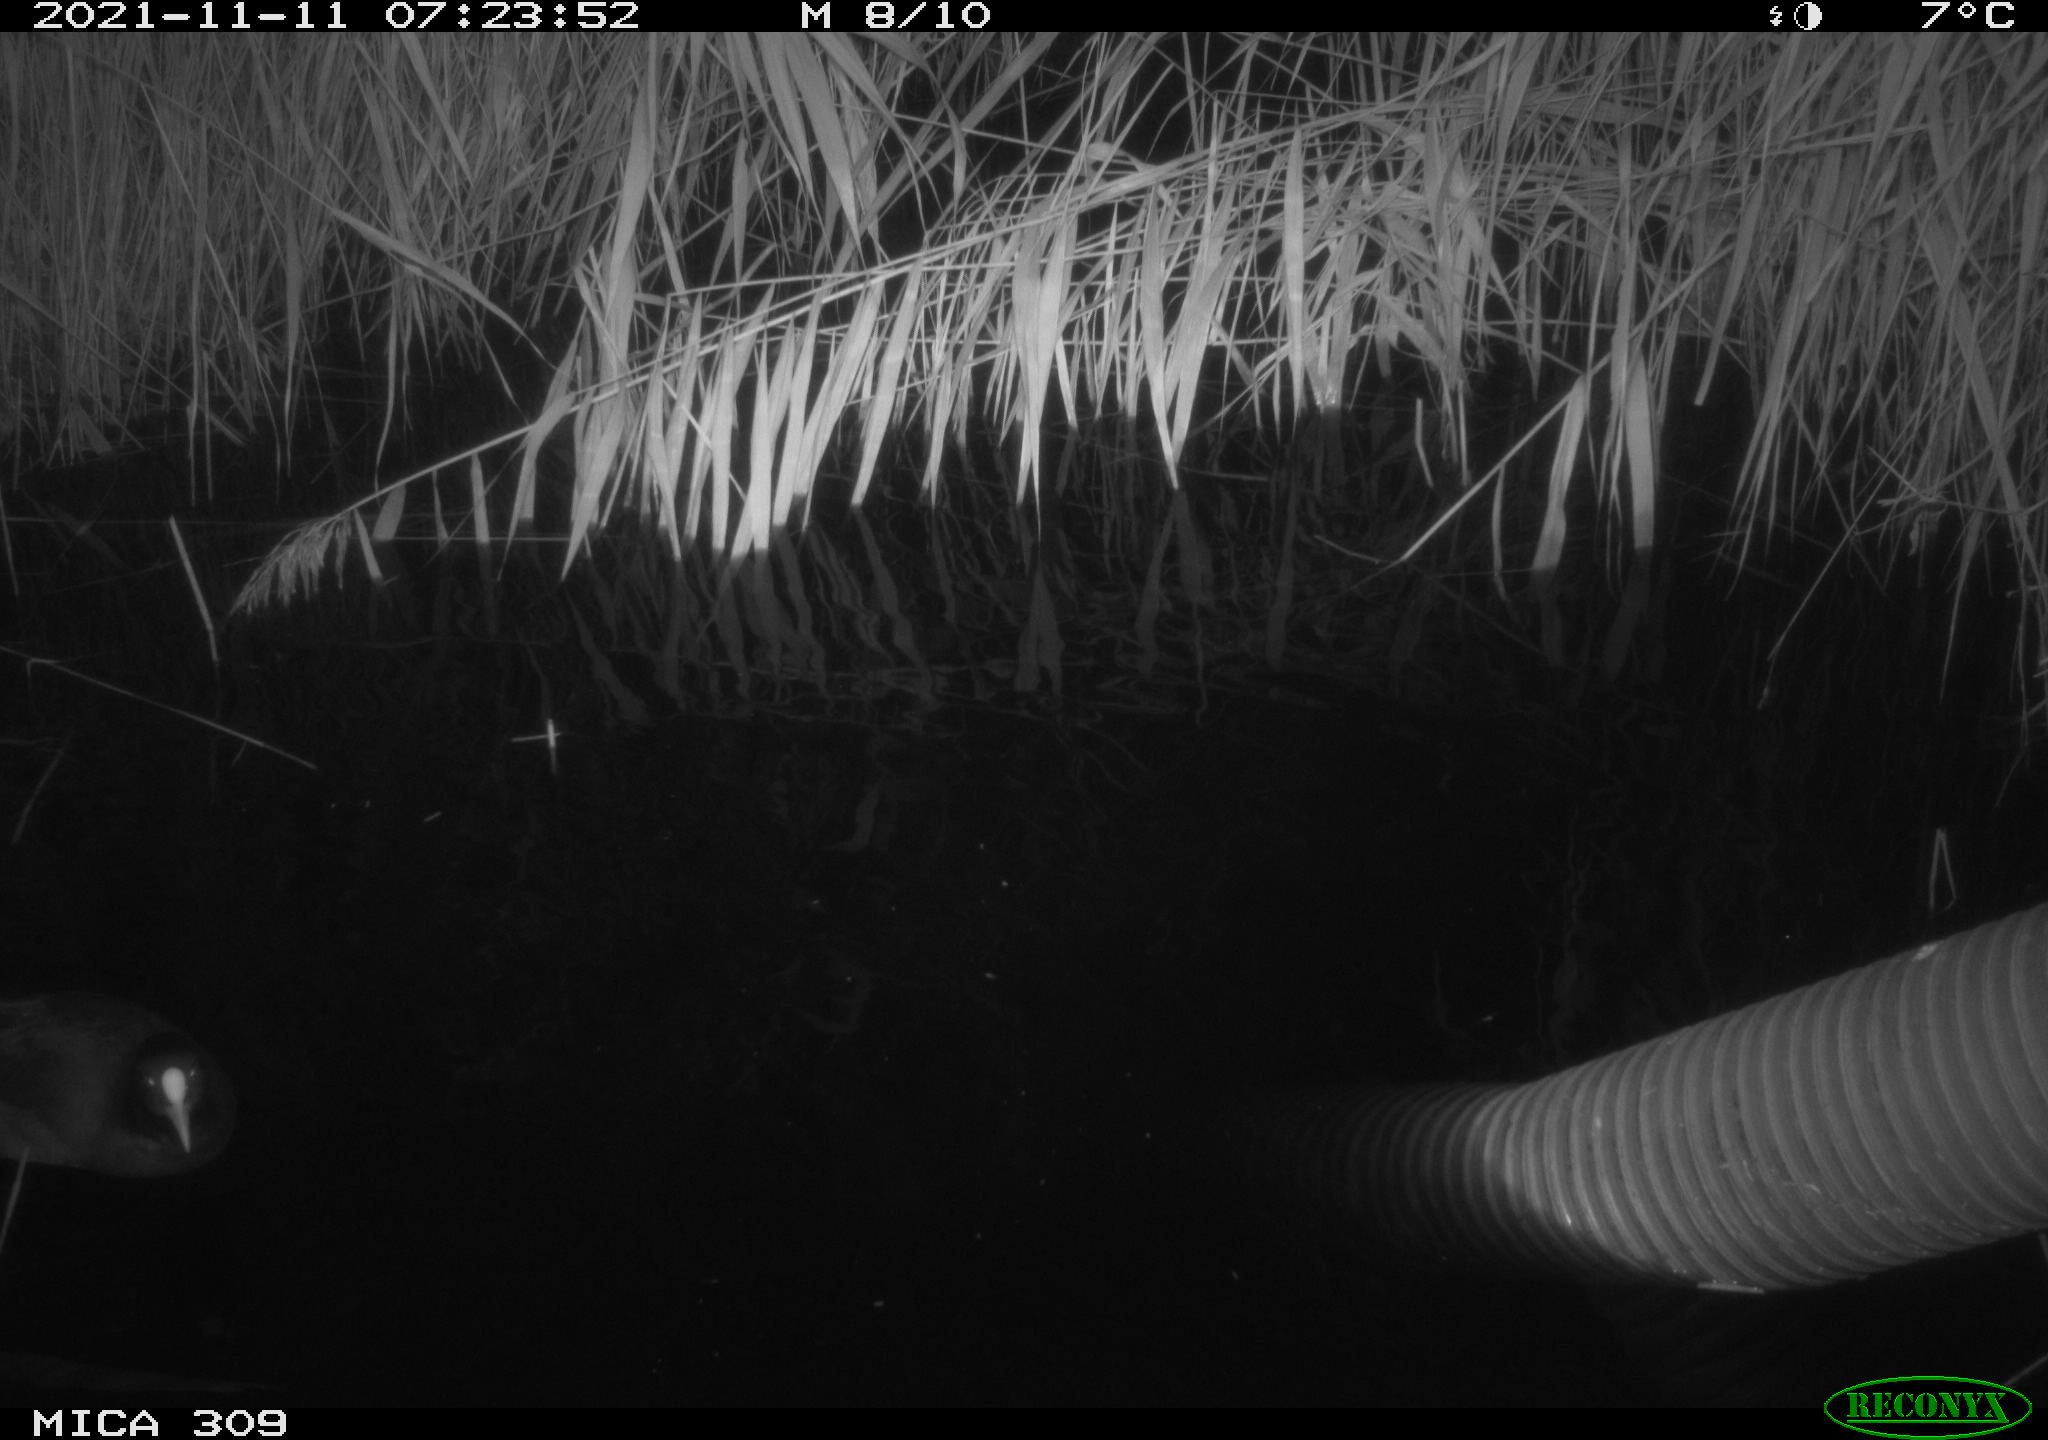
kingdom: Animalia
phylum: Chordata
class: Aves
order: Gruiformes
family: Rallidae
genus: Gallinula
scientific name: Gallinula chloropus
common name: Common moorhen
